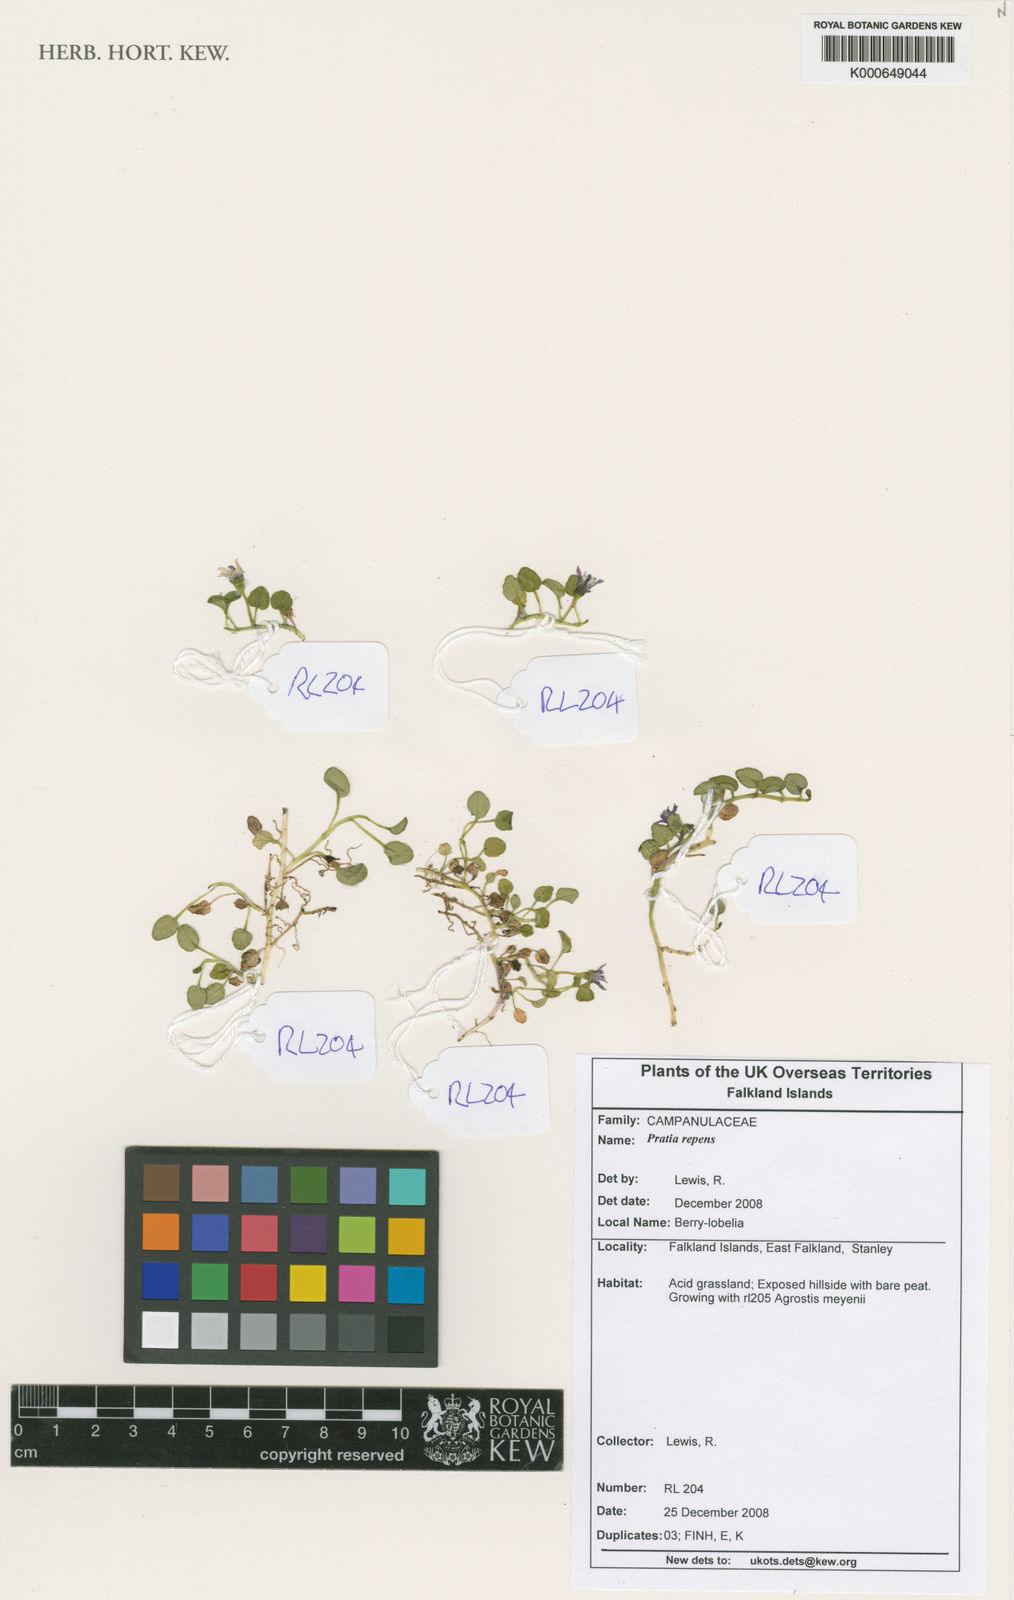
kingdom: Plantae
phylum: Tracheophyta
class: Magnoliopsida
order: Asterales
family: Campanulaceae
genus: Lobelia
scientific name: Lobelia oligophylla
